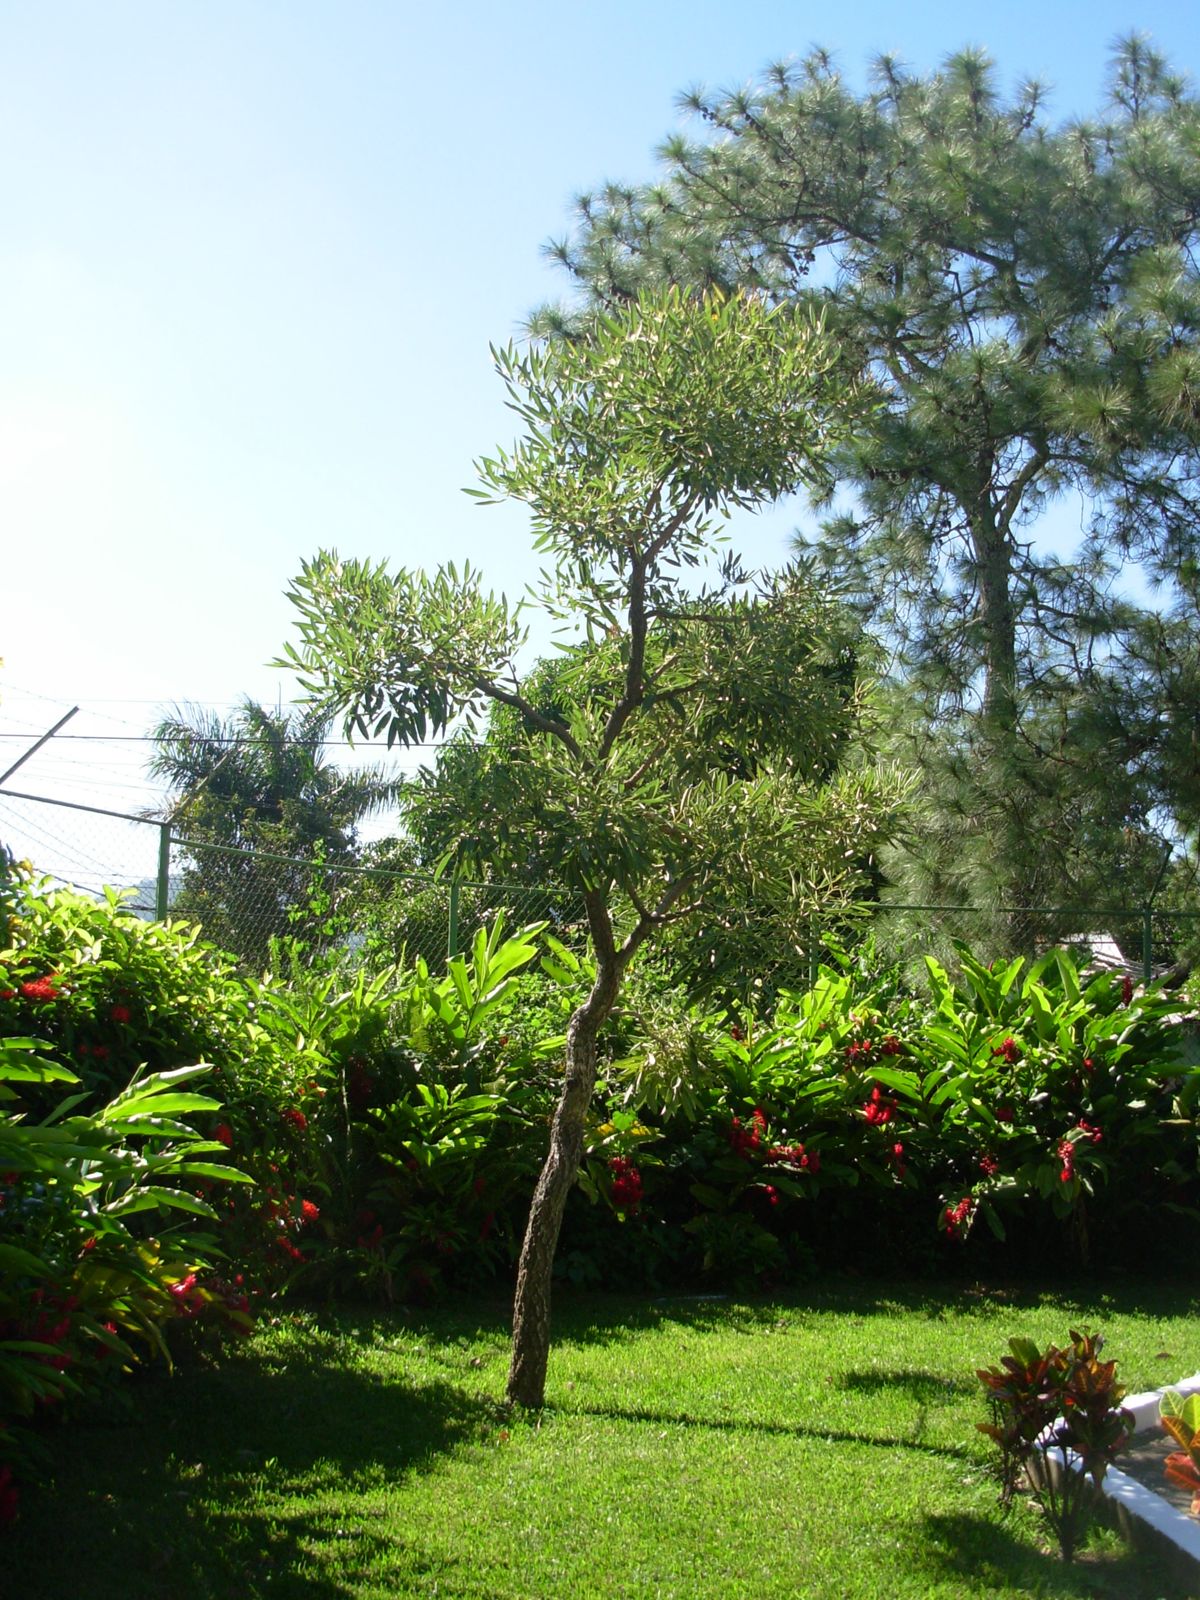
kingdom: Plantae
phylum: Tracheophyta
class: Magnoliopsida
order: Lamiales
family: Bignoniaceae
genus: Tabebuia
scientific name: Tabebuia aurea
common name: Caribbean trumpet-tree
